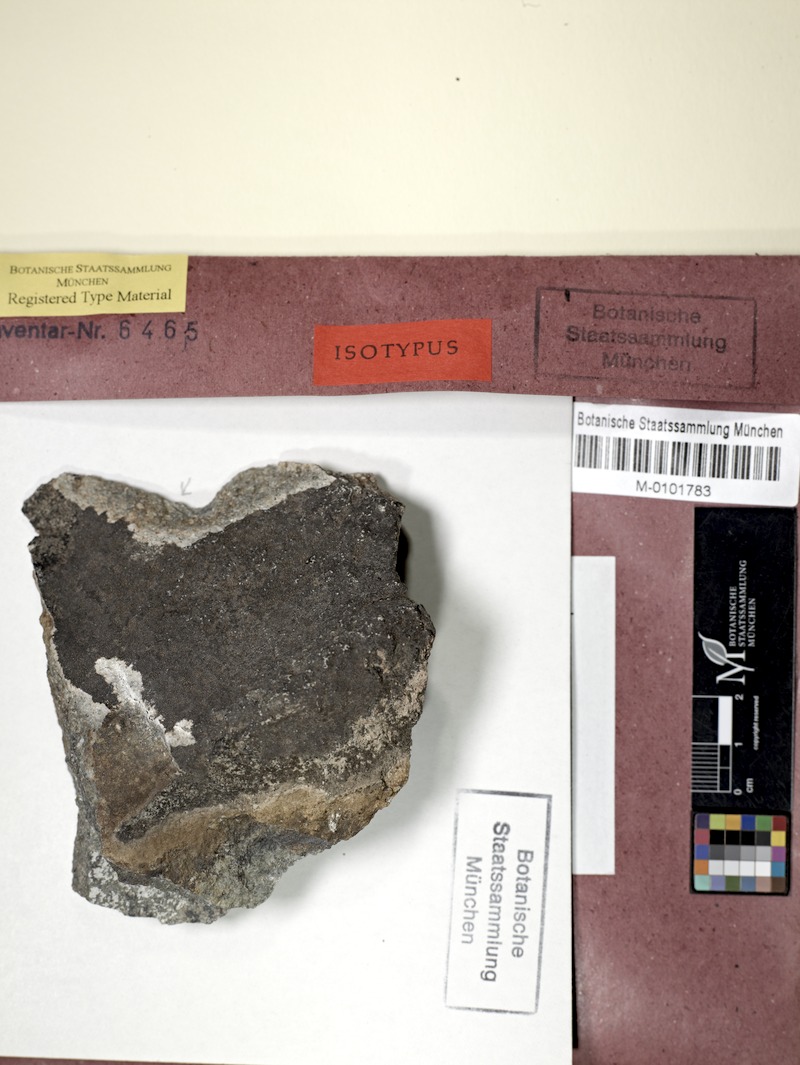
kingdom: Fungi
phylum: Ascomycota
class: Lecanoromycetes
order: Lecideales
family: Lecideaceae
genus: Immersaria
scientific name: Immersaria
